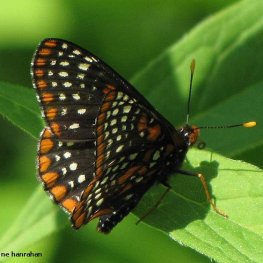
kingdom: Animalia
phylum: Arthropoda
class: Insecta
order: Lepidoptera
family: Nymphalidae
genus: Euphydryas
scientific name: Euphydryas phaeton
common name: Baltimore Checkerspot
